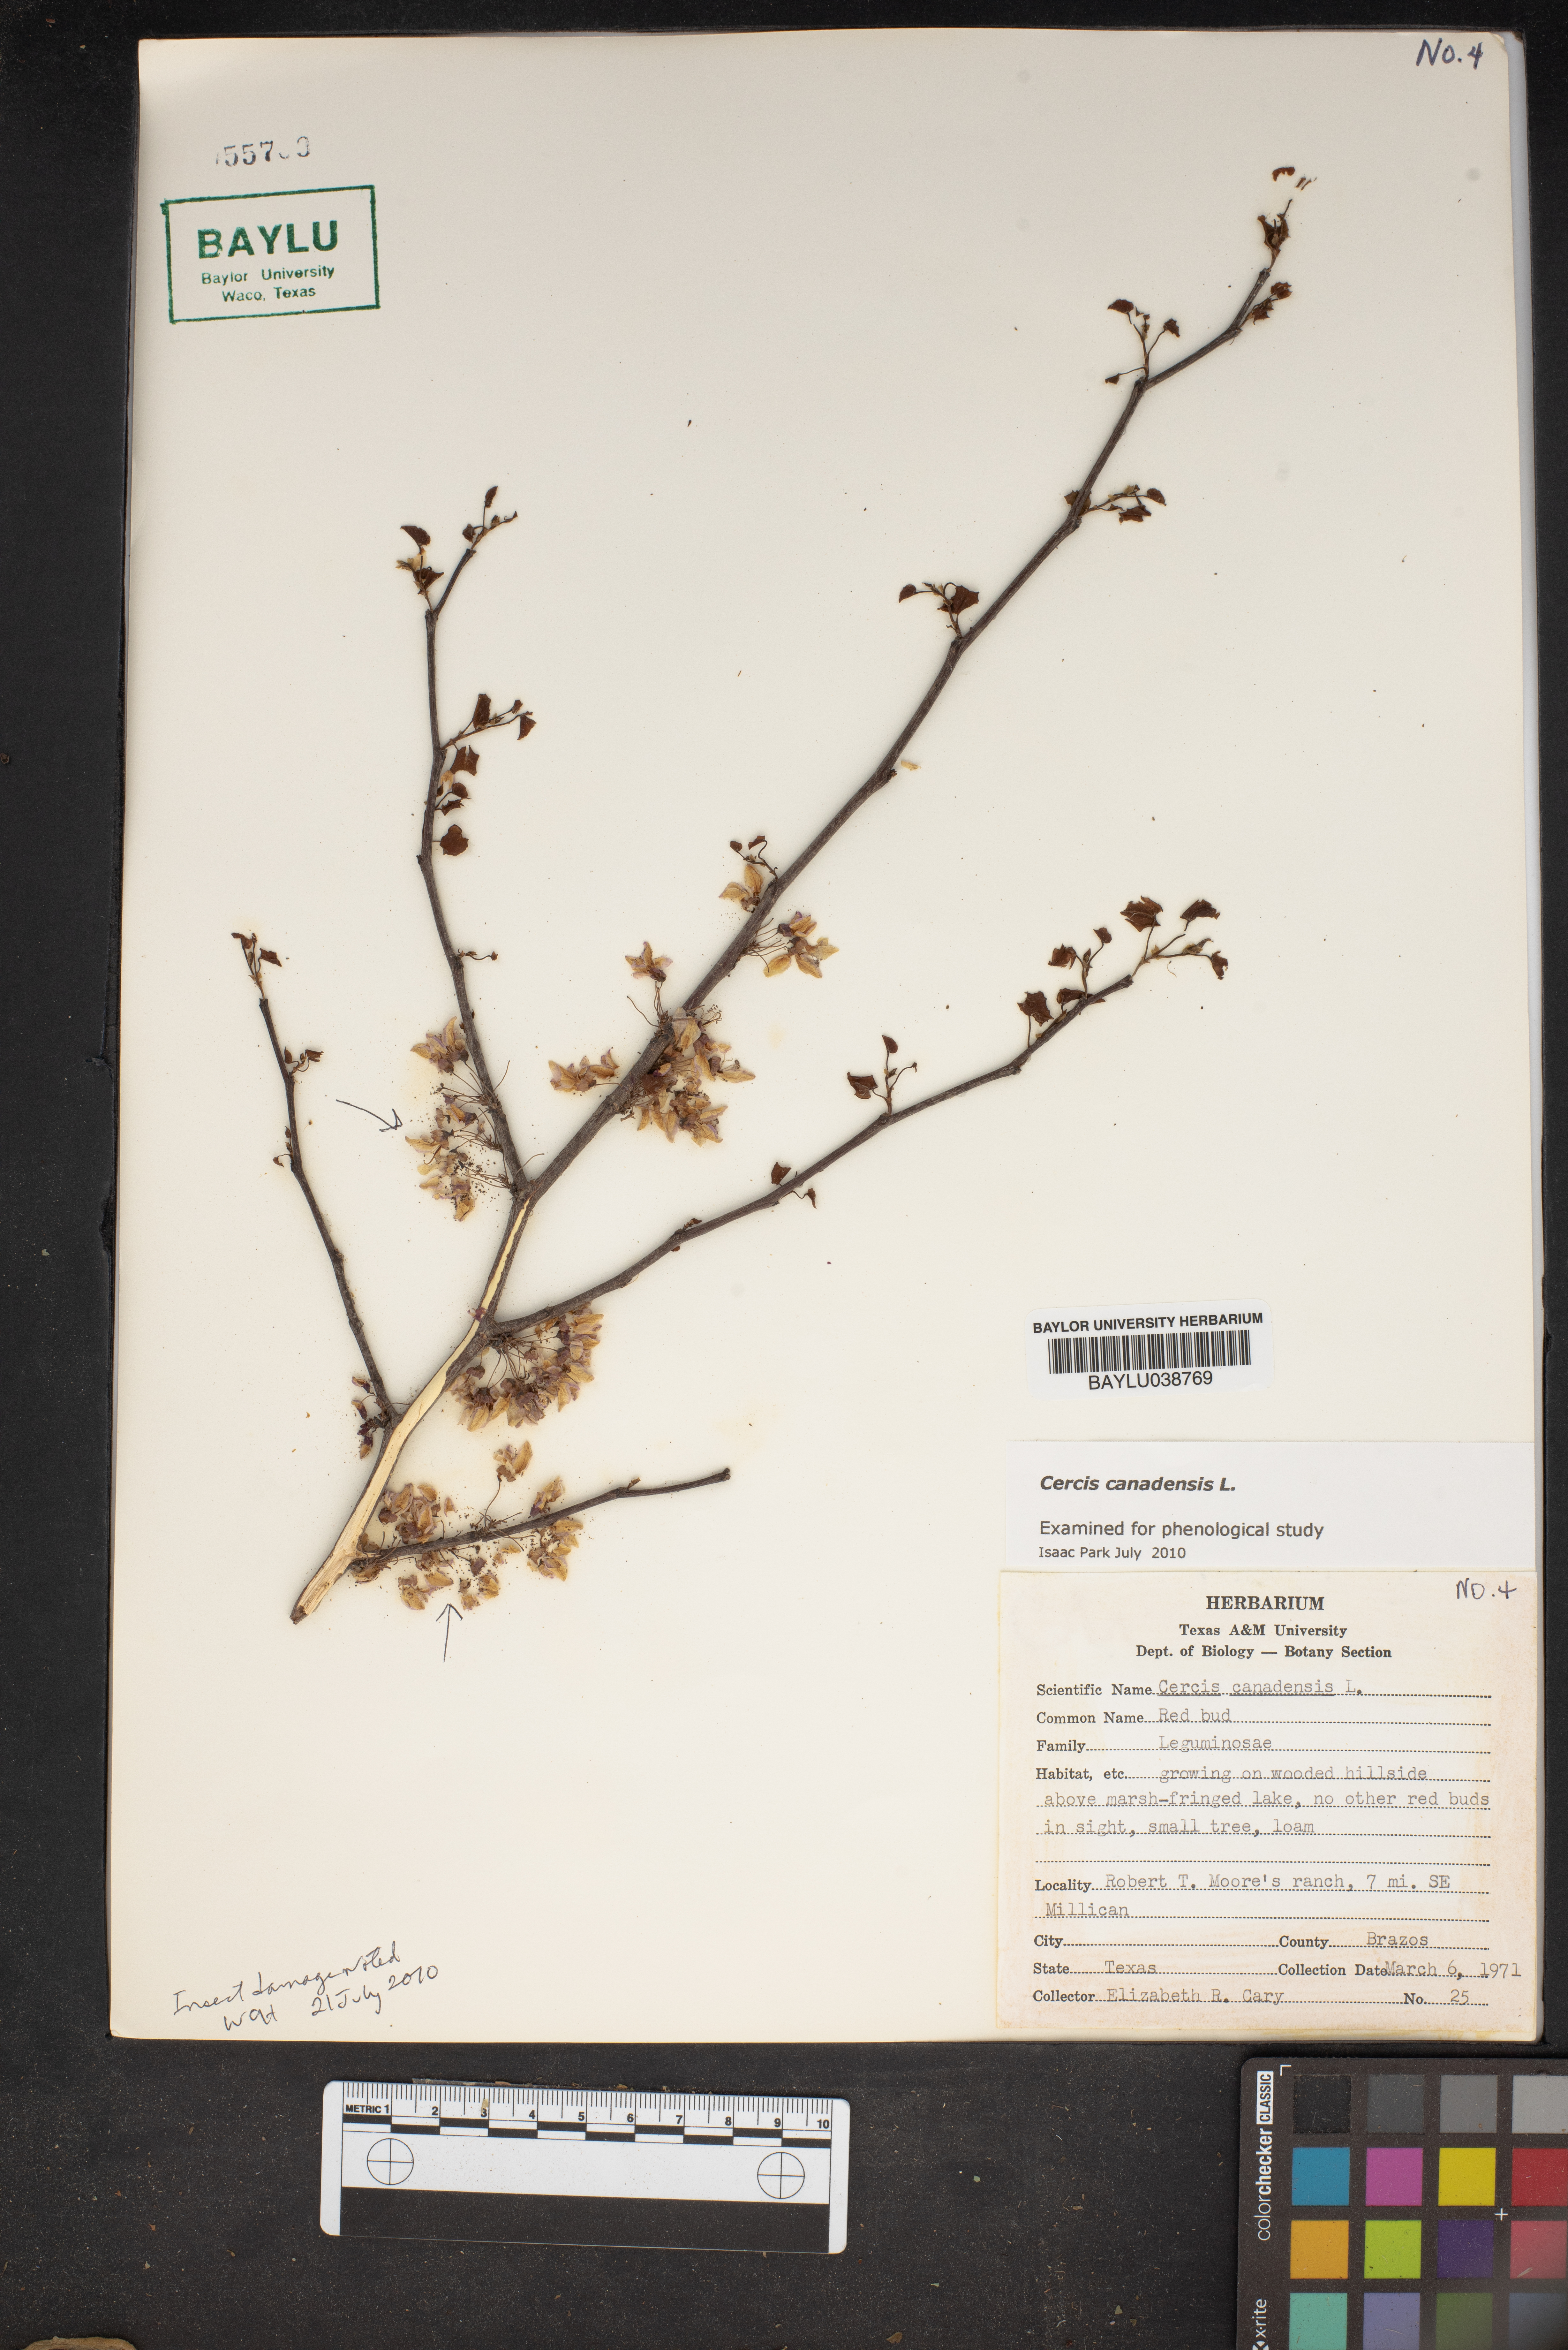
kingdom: Plantae
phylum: Tracheophyta
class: Magnoliopsida
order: Fabales
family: Fabaceae
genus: Cercis
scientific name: Cercis canadensis
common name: Eastern redbud
